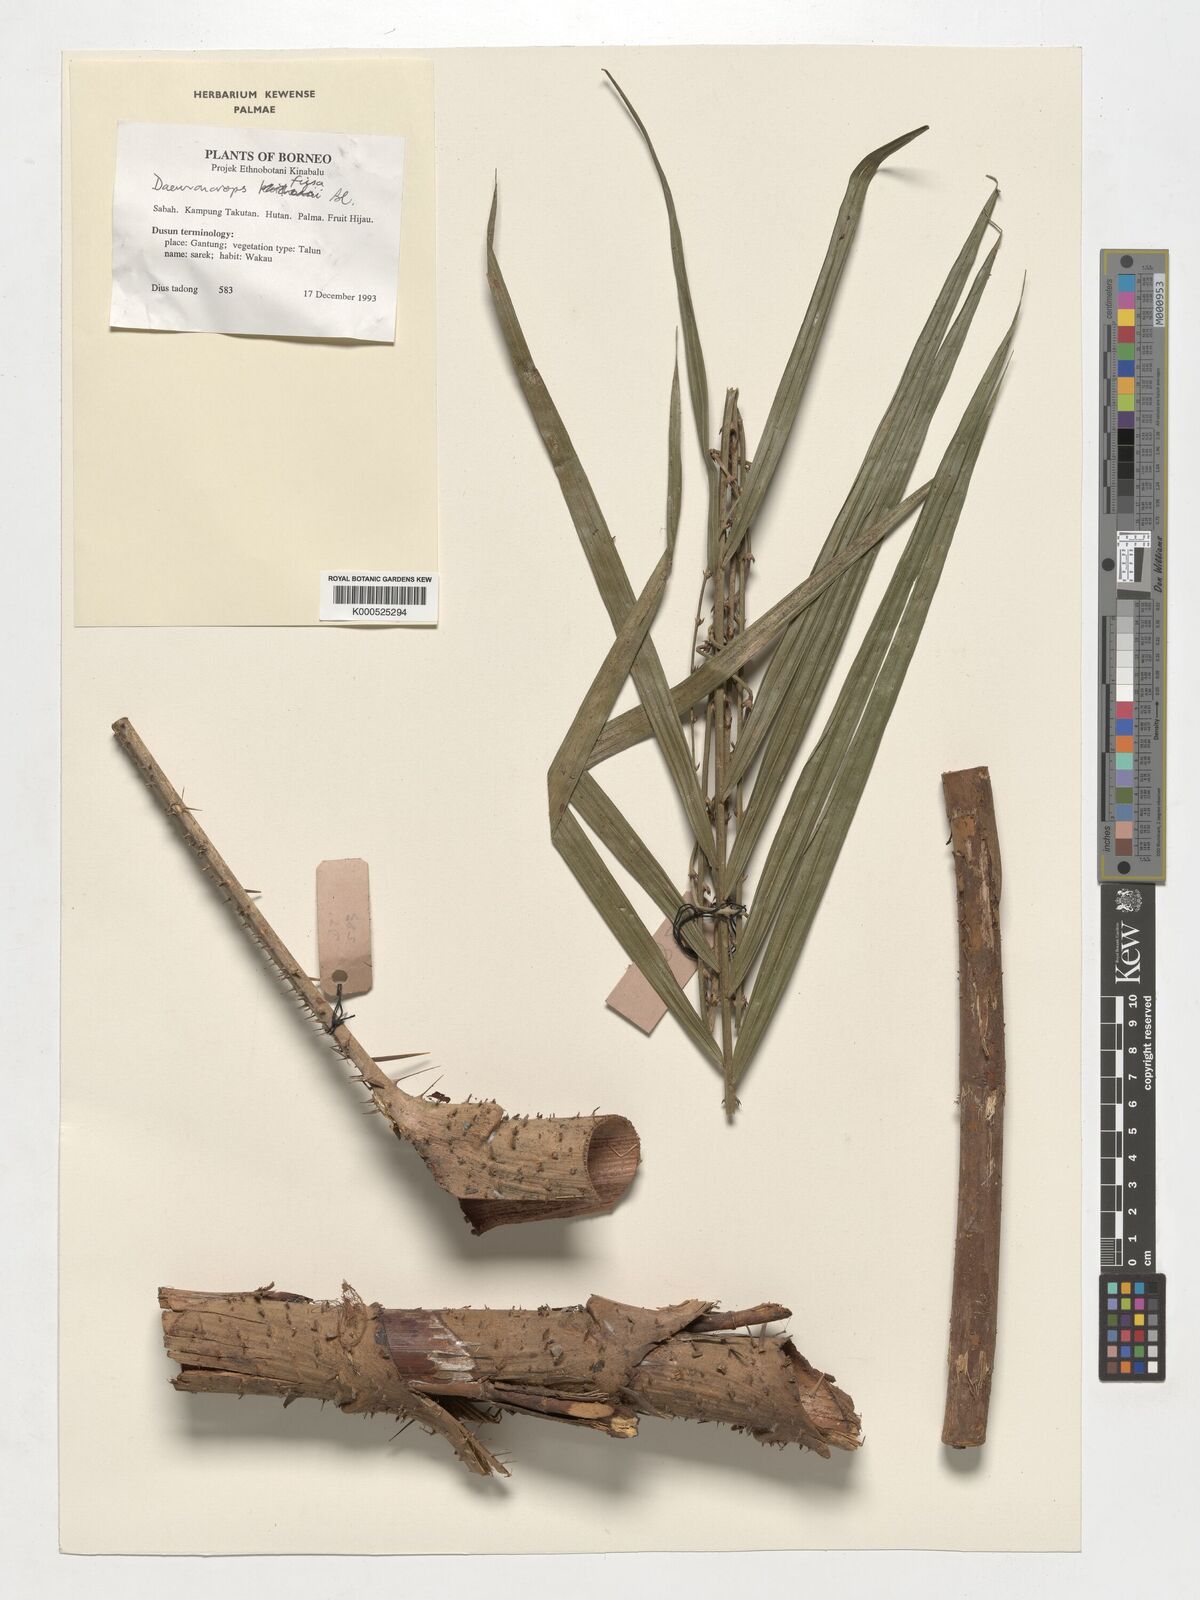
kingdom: Plantae
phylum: Tracheophyta
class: Liliopsida
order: Arecales
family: Arecaceae
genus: Calamus
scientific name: Calamus melanochaetes
